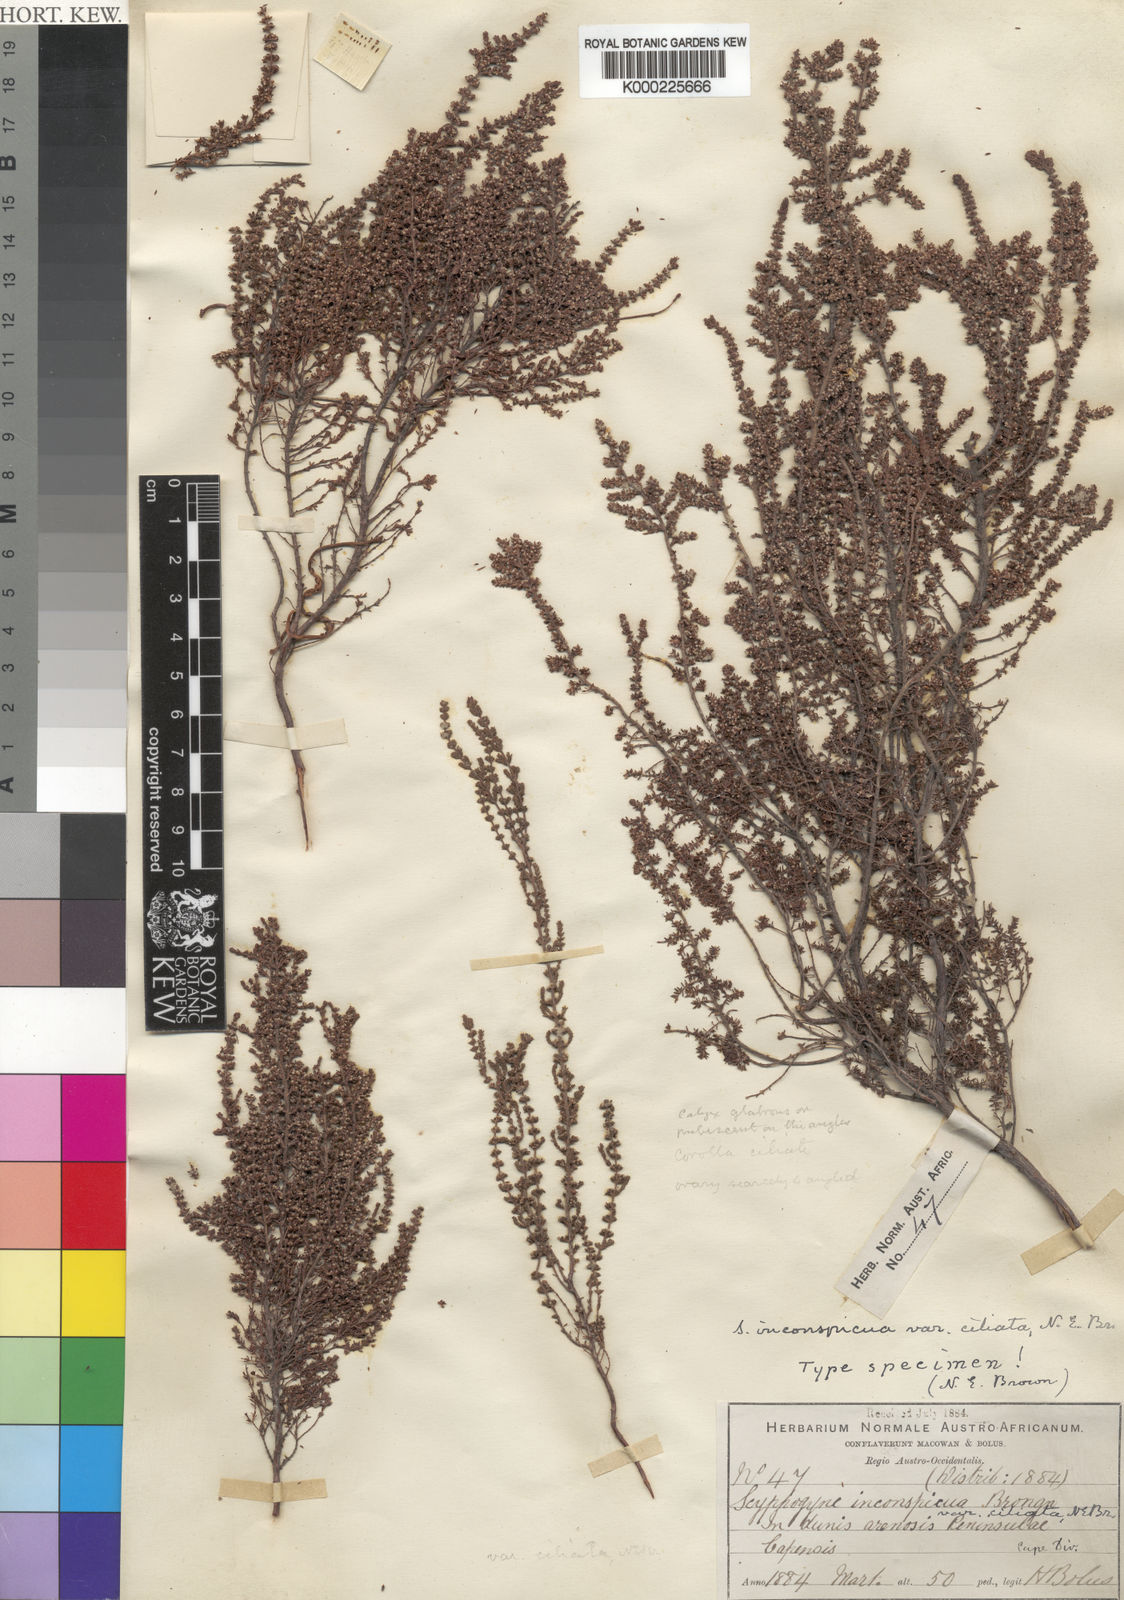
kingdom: Plantae
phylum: Tracheophyta
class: Magnoliopsida
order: Ericales
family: Ericaceae
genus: Scyphogyne
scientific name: Scyphogyne
